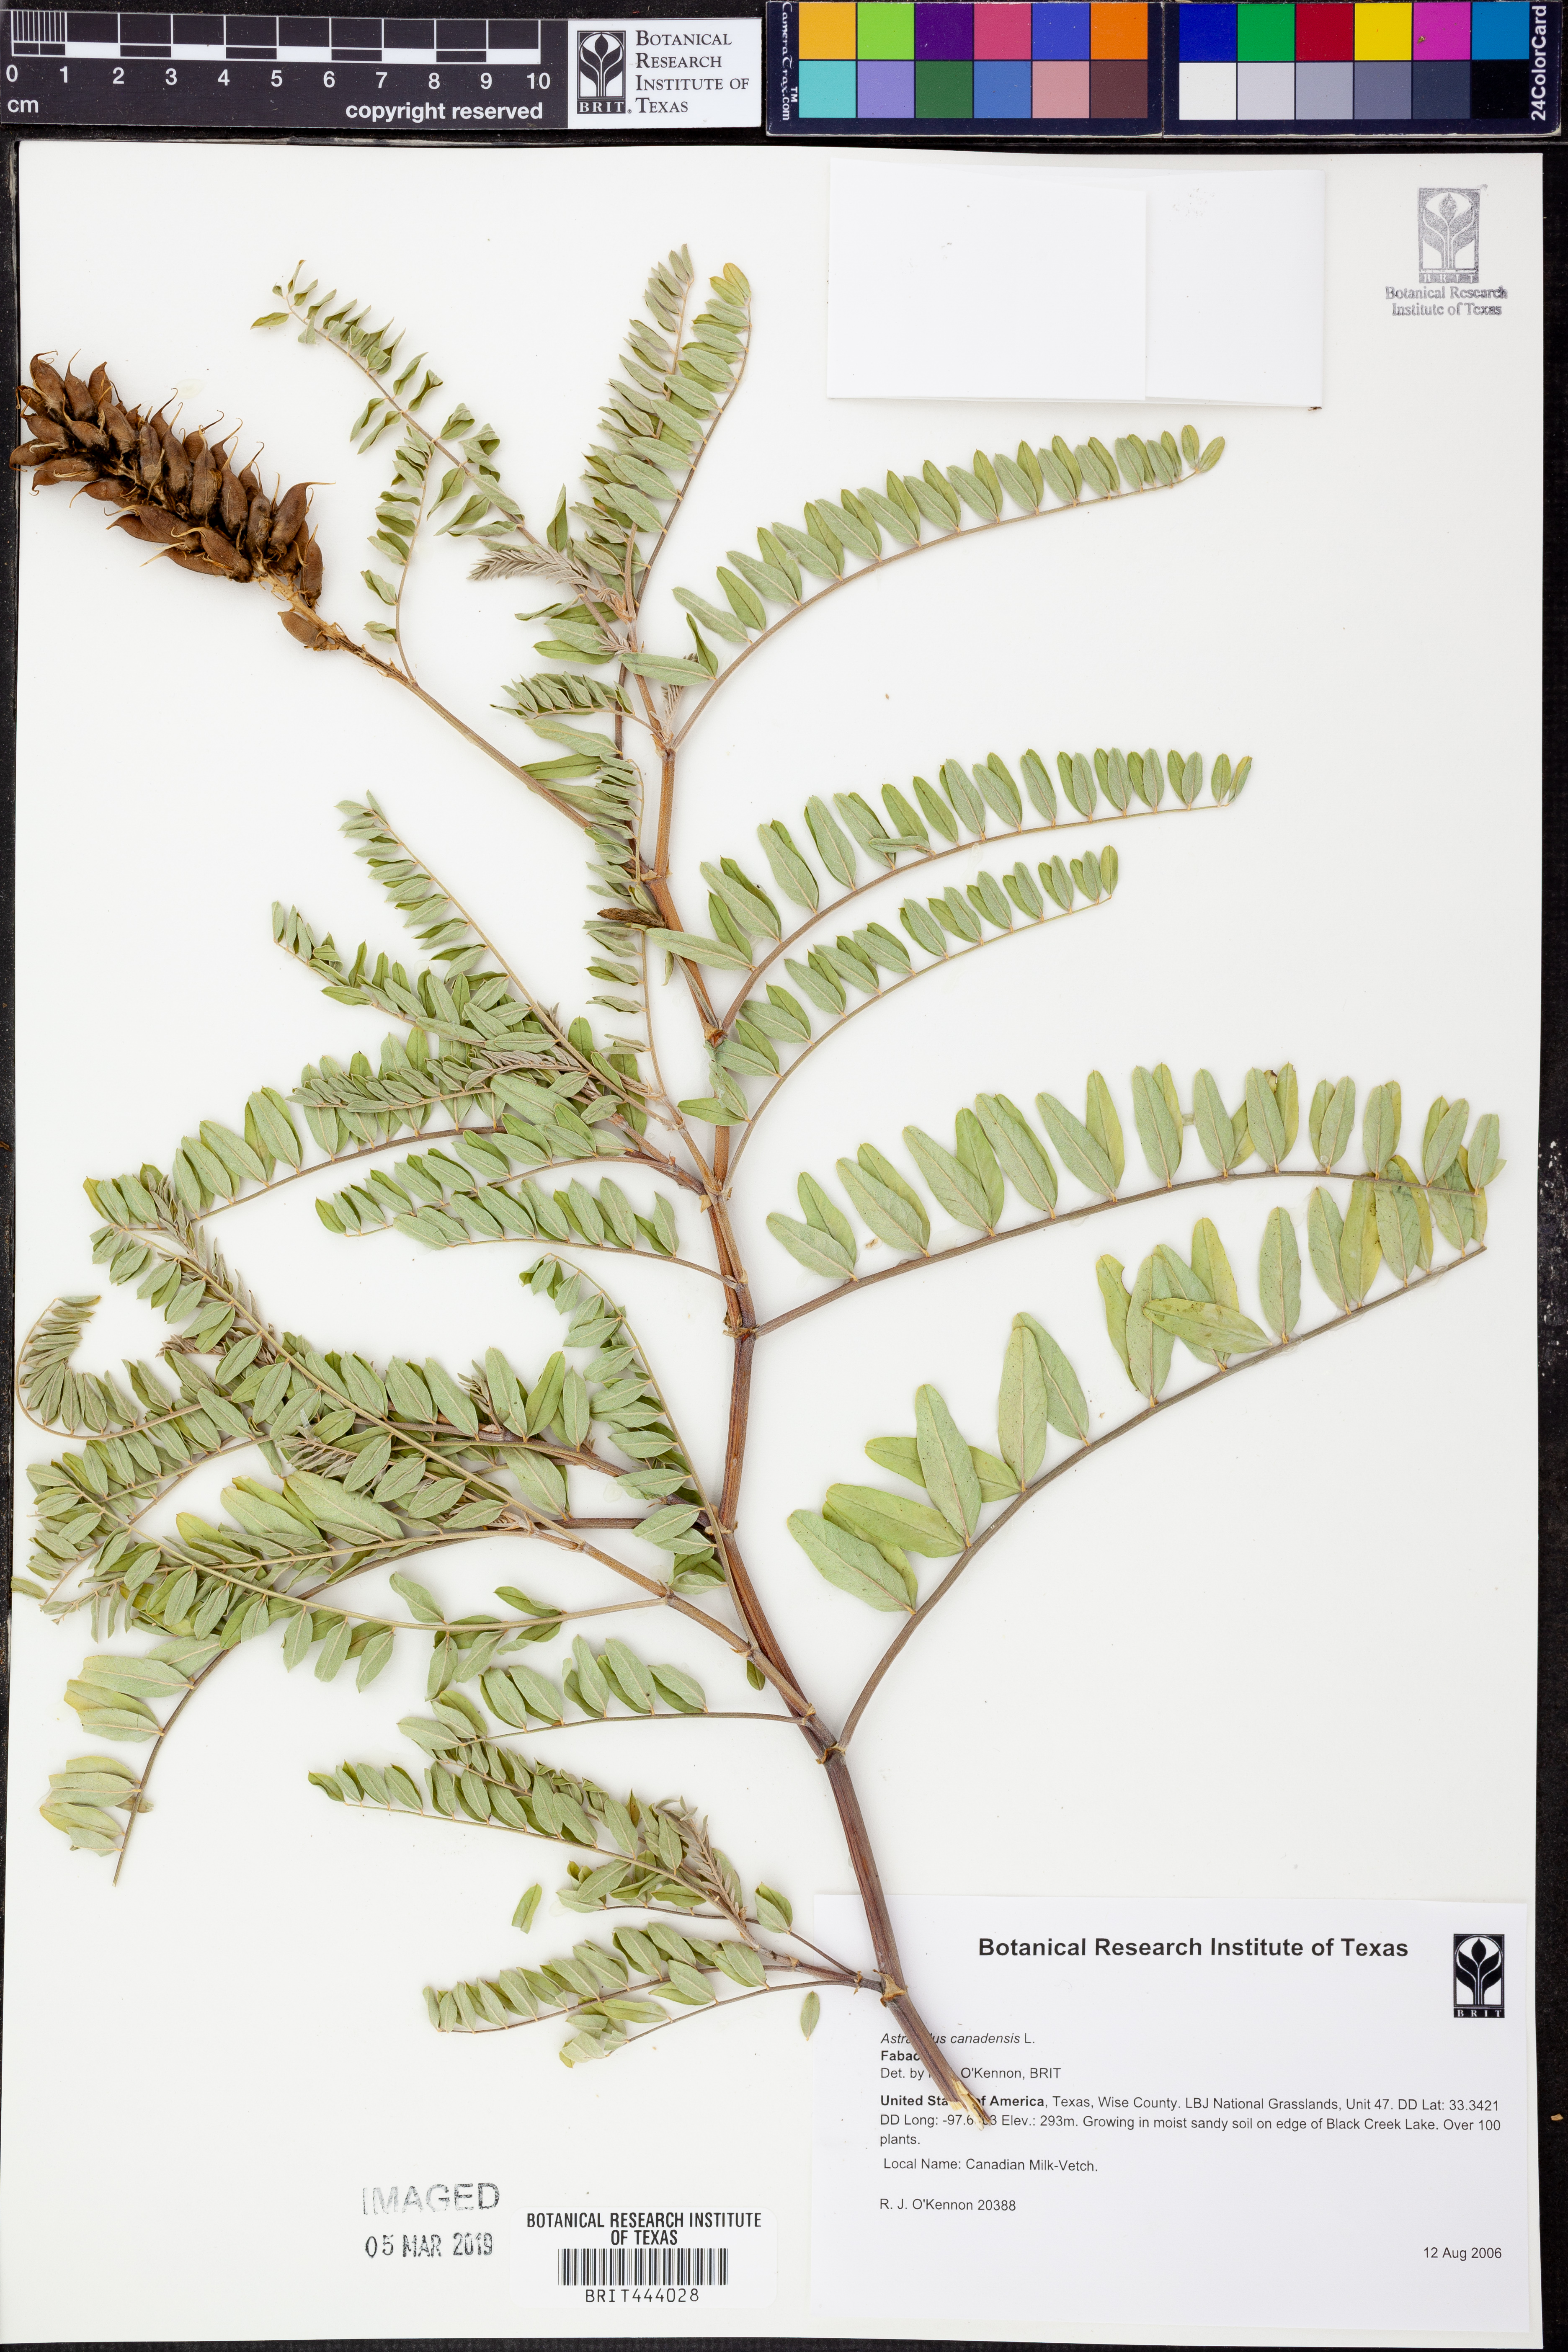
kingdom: Plantae
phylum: Tracheophyta
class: Magnoliopsida
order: Fabales
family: Fabaceae
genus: Astragalus
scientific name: Astragalus canadensis
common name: Canada milk-vetch
